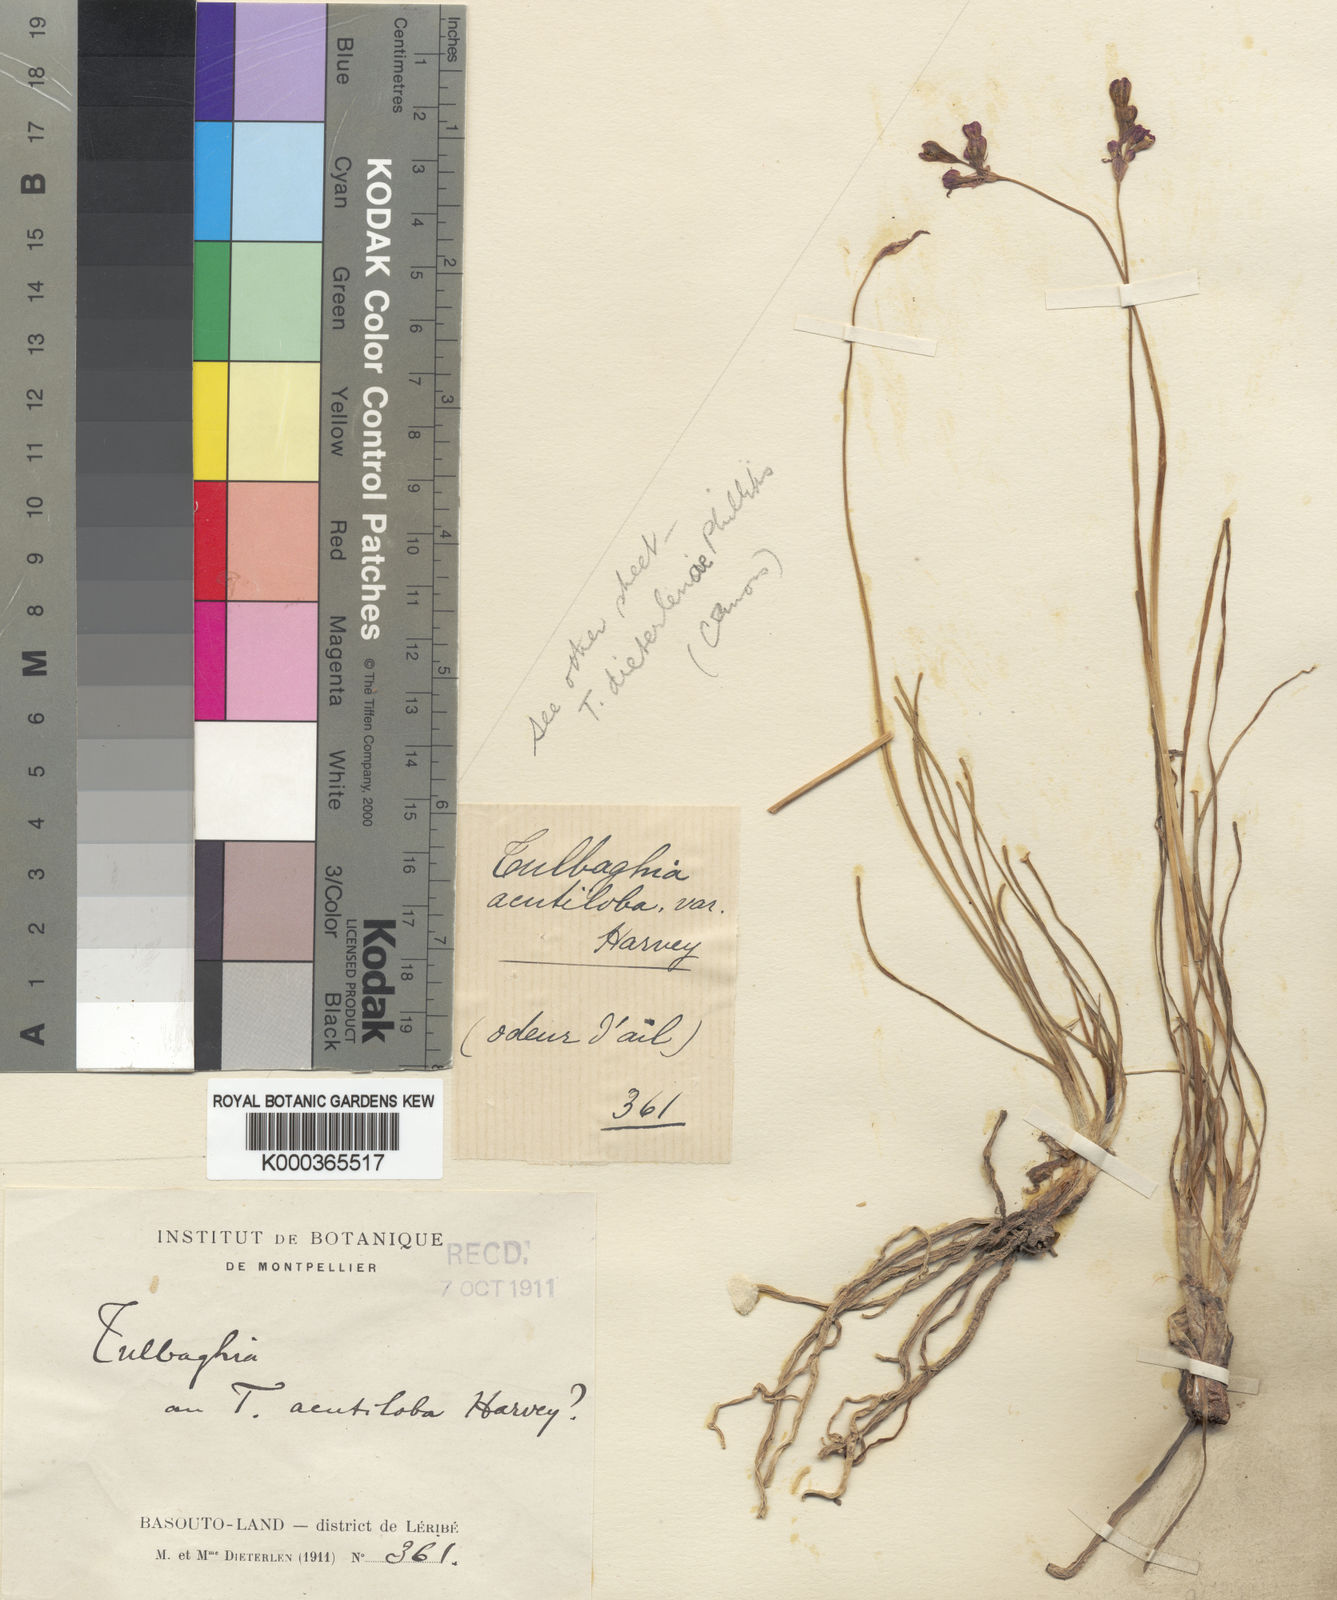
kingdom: Plantae
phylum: Tracheophyta
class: Liliopsida
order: Asparagales
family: Amaryllidaceae
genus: Tulbaghia
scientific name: Tulbaghia leucantha
